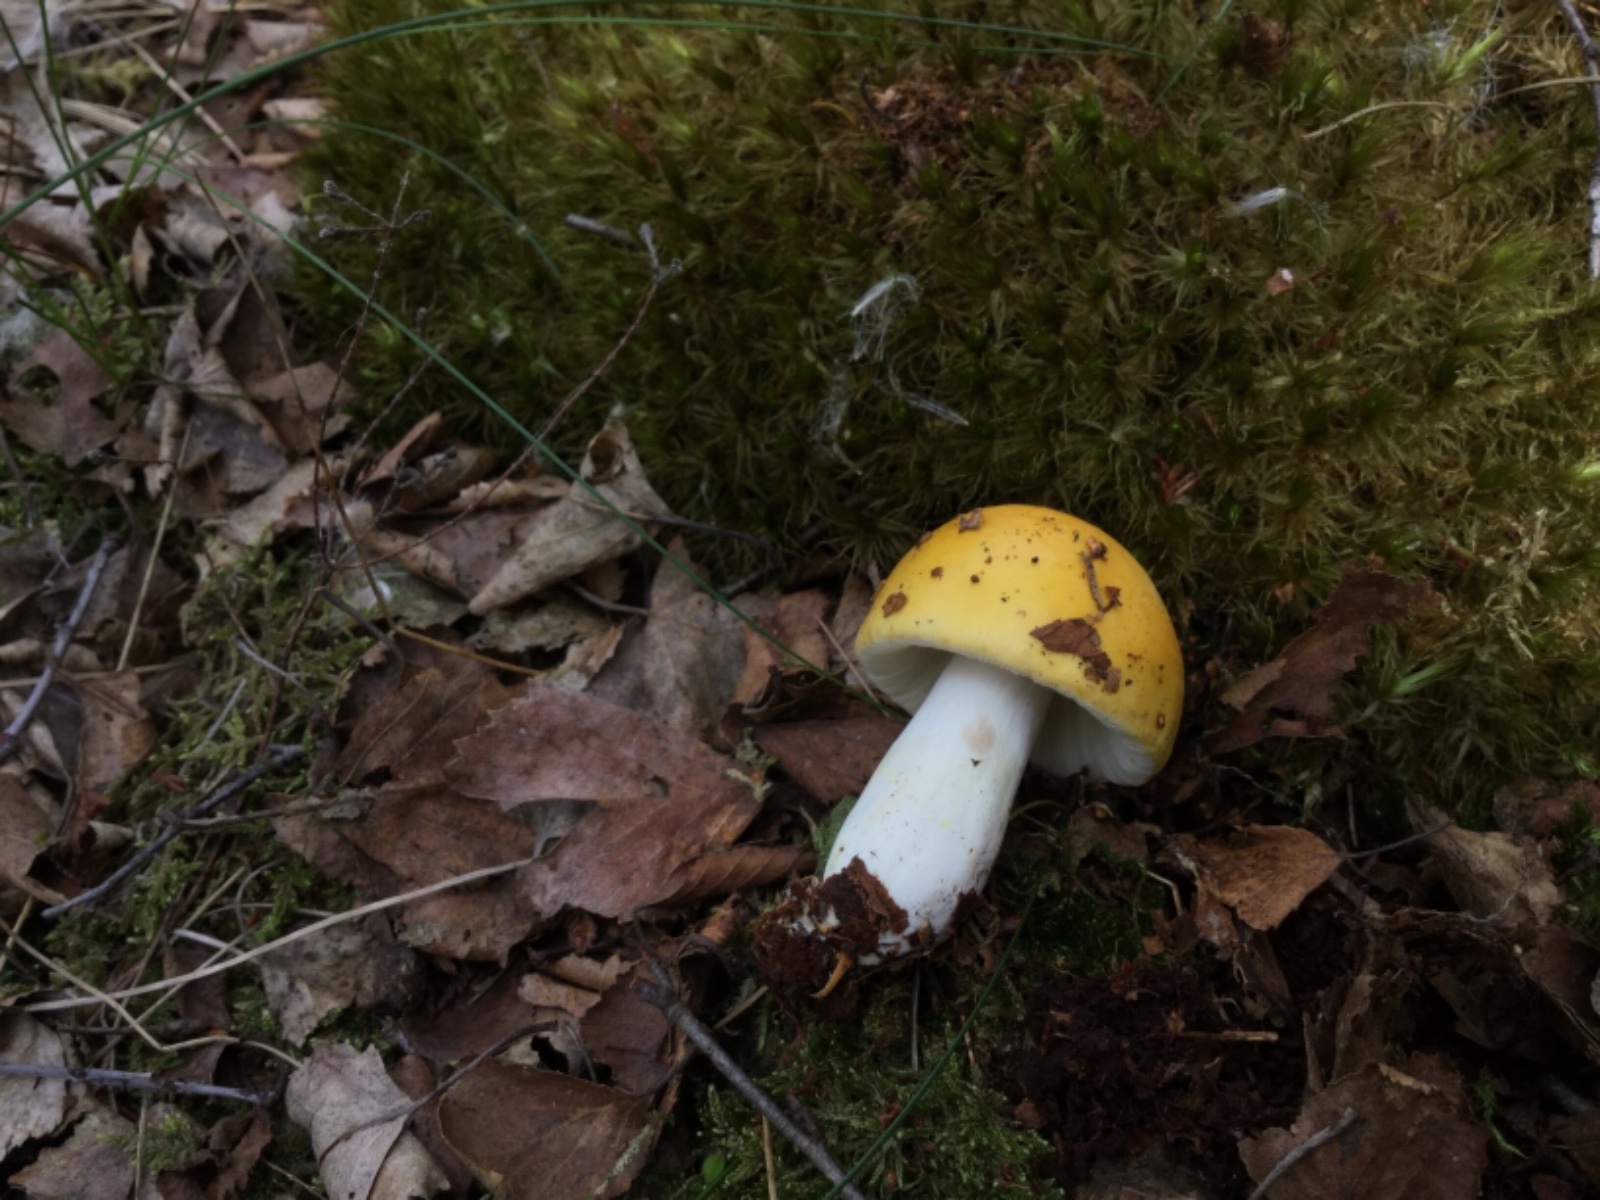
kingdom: Fungi
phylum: Basidiomycota
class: Agaricomycetes
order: Russulales
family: Russulaceae
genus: Russula
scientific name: Russula claroflava
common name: birke-skørhat
